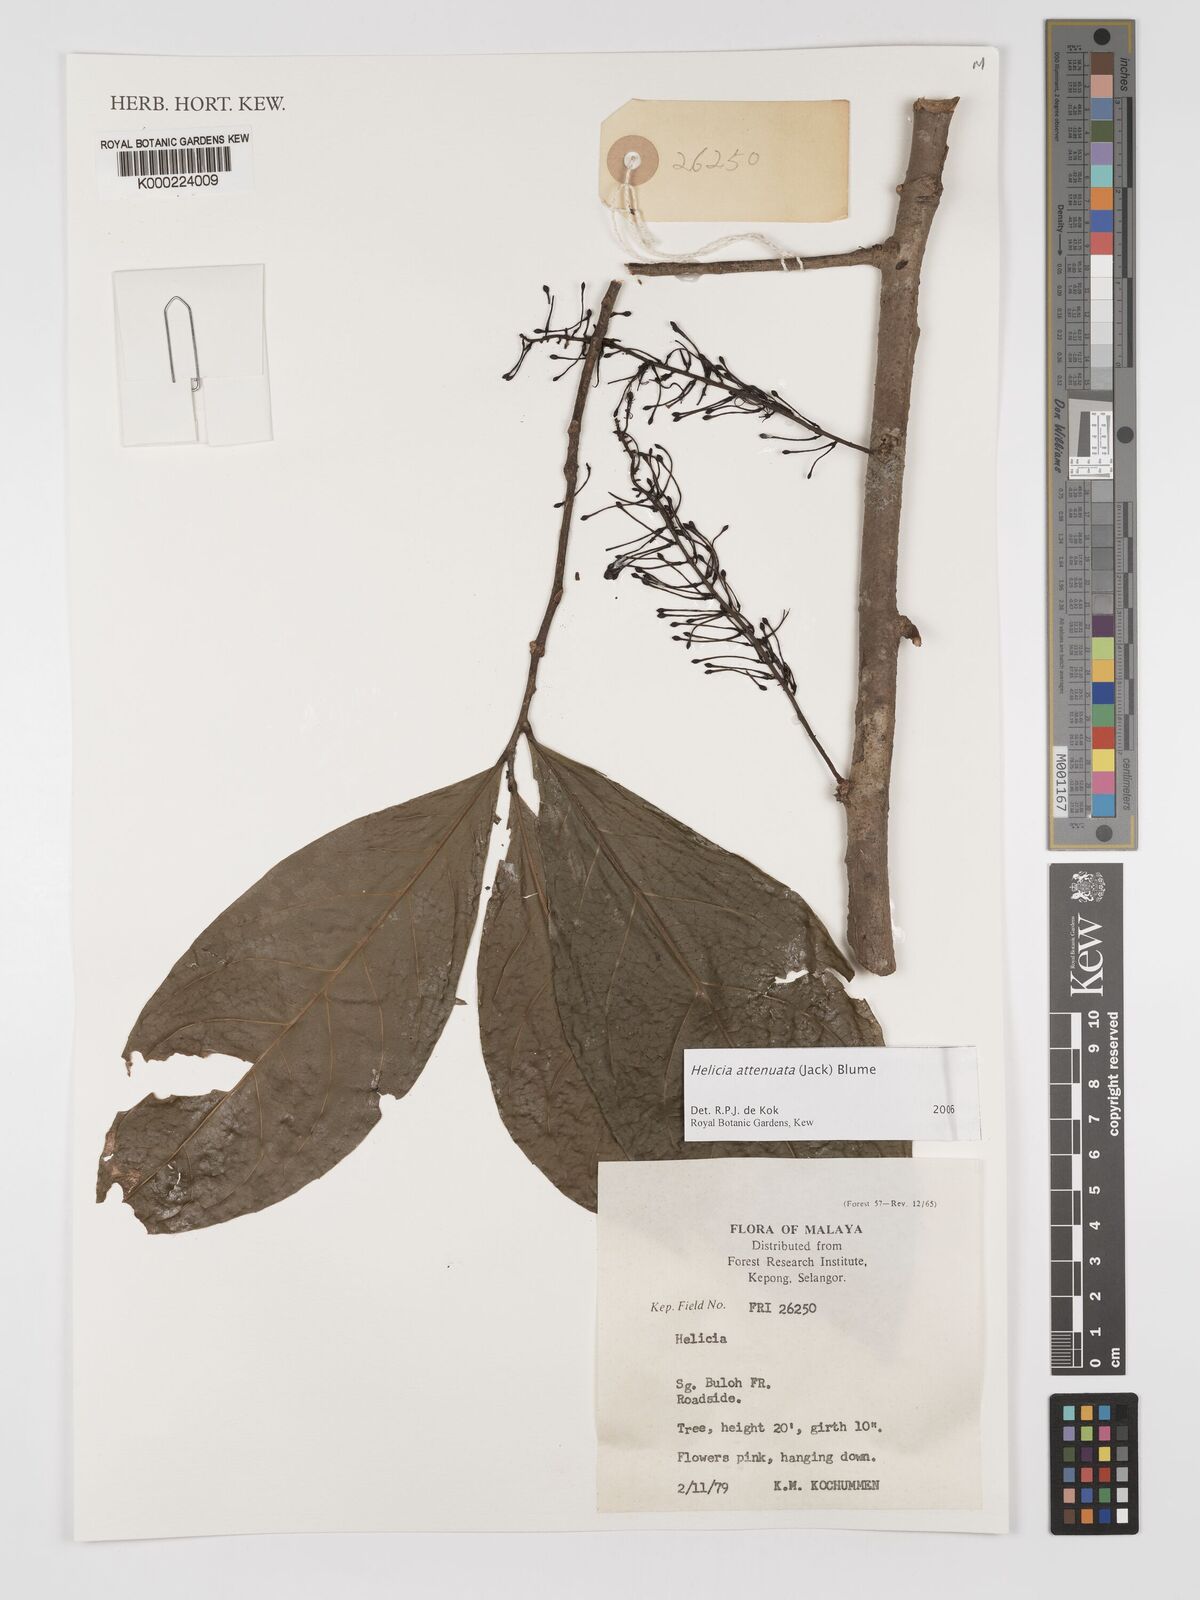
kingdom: Plantae
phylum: Tracheophyta
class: Magnoliopsida
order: Proteales
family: Proteaceae
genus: Helicia
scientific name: Helicia attenuata
